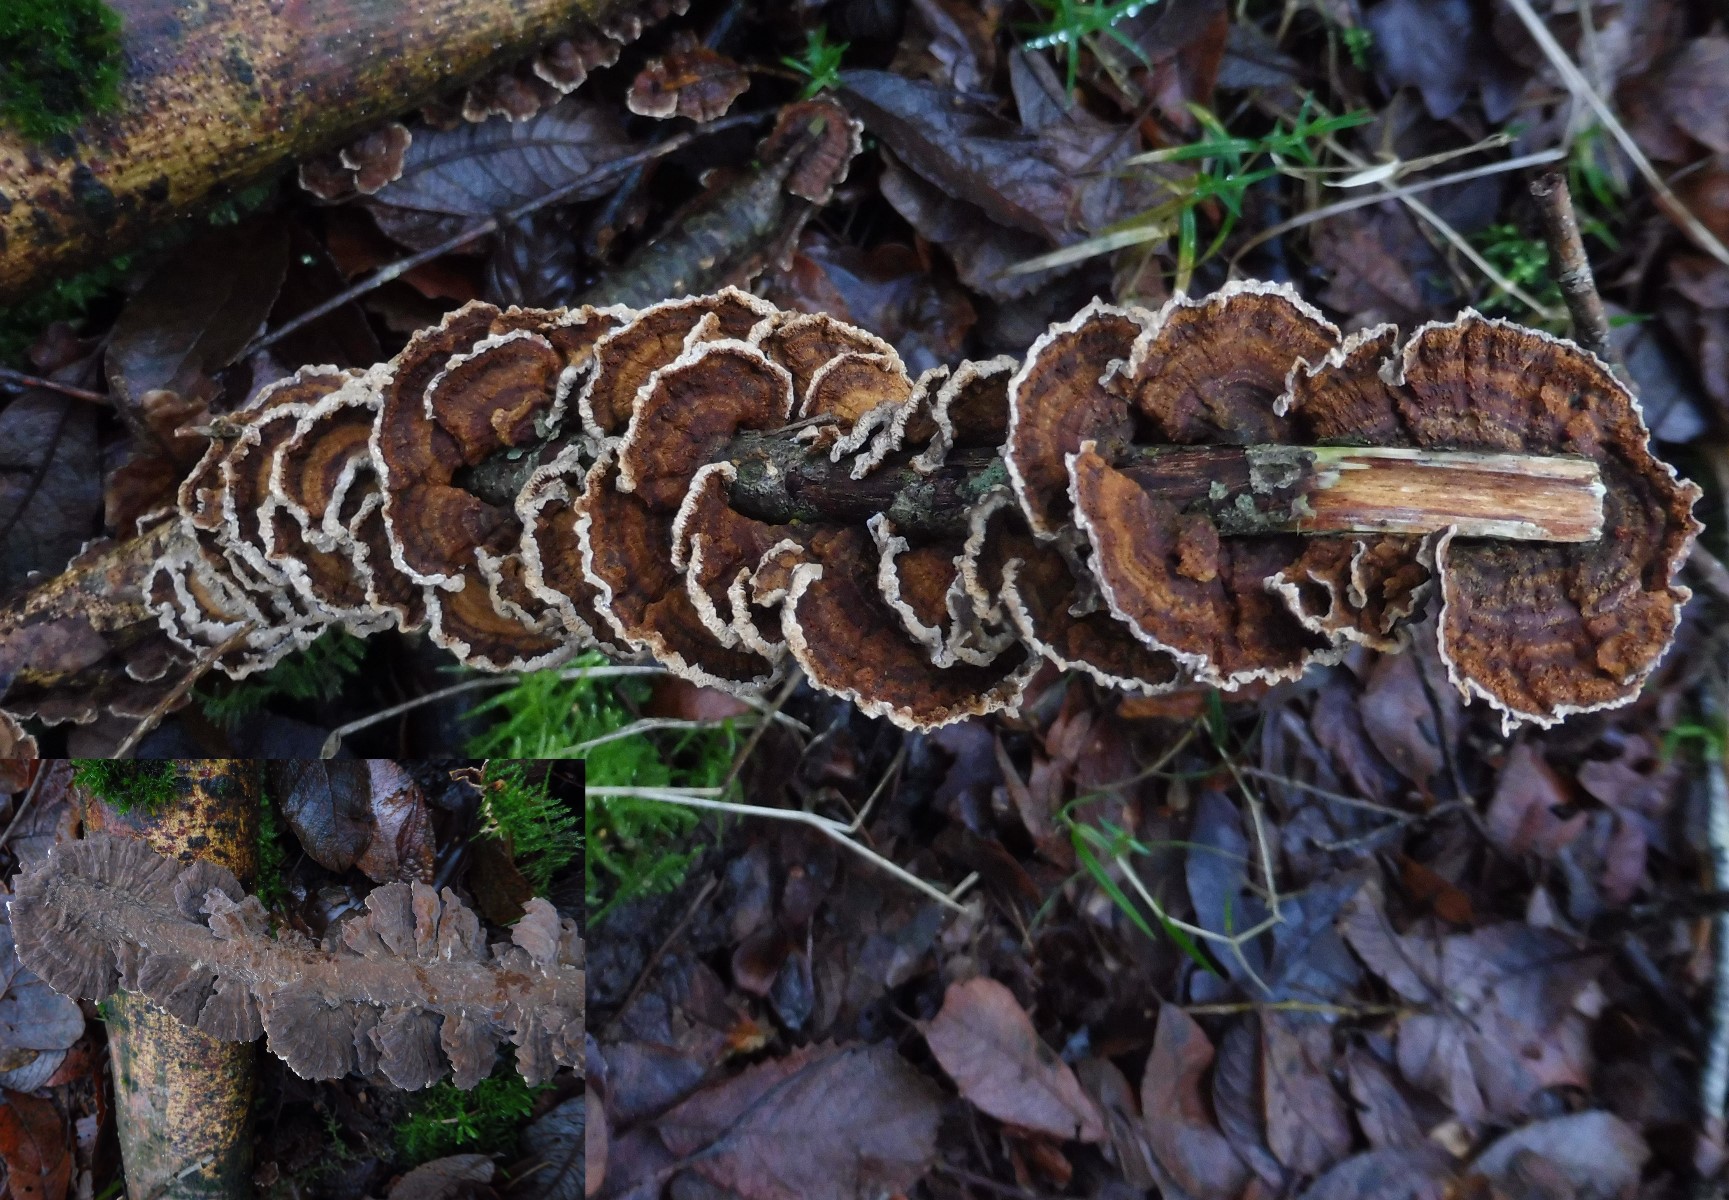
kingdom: Fungi
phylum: Basidiomycota
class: Agaricomycetes
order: Hymenochaetales
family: Hymenochaetaceae
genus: Hydnoporia
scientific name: Hydnoporia tabacina
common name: tobaksbrun ruslædersvamp
